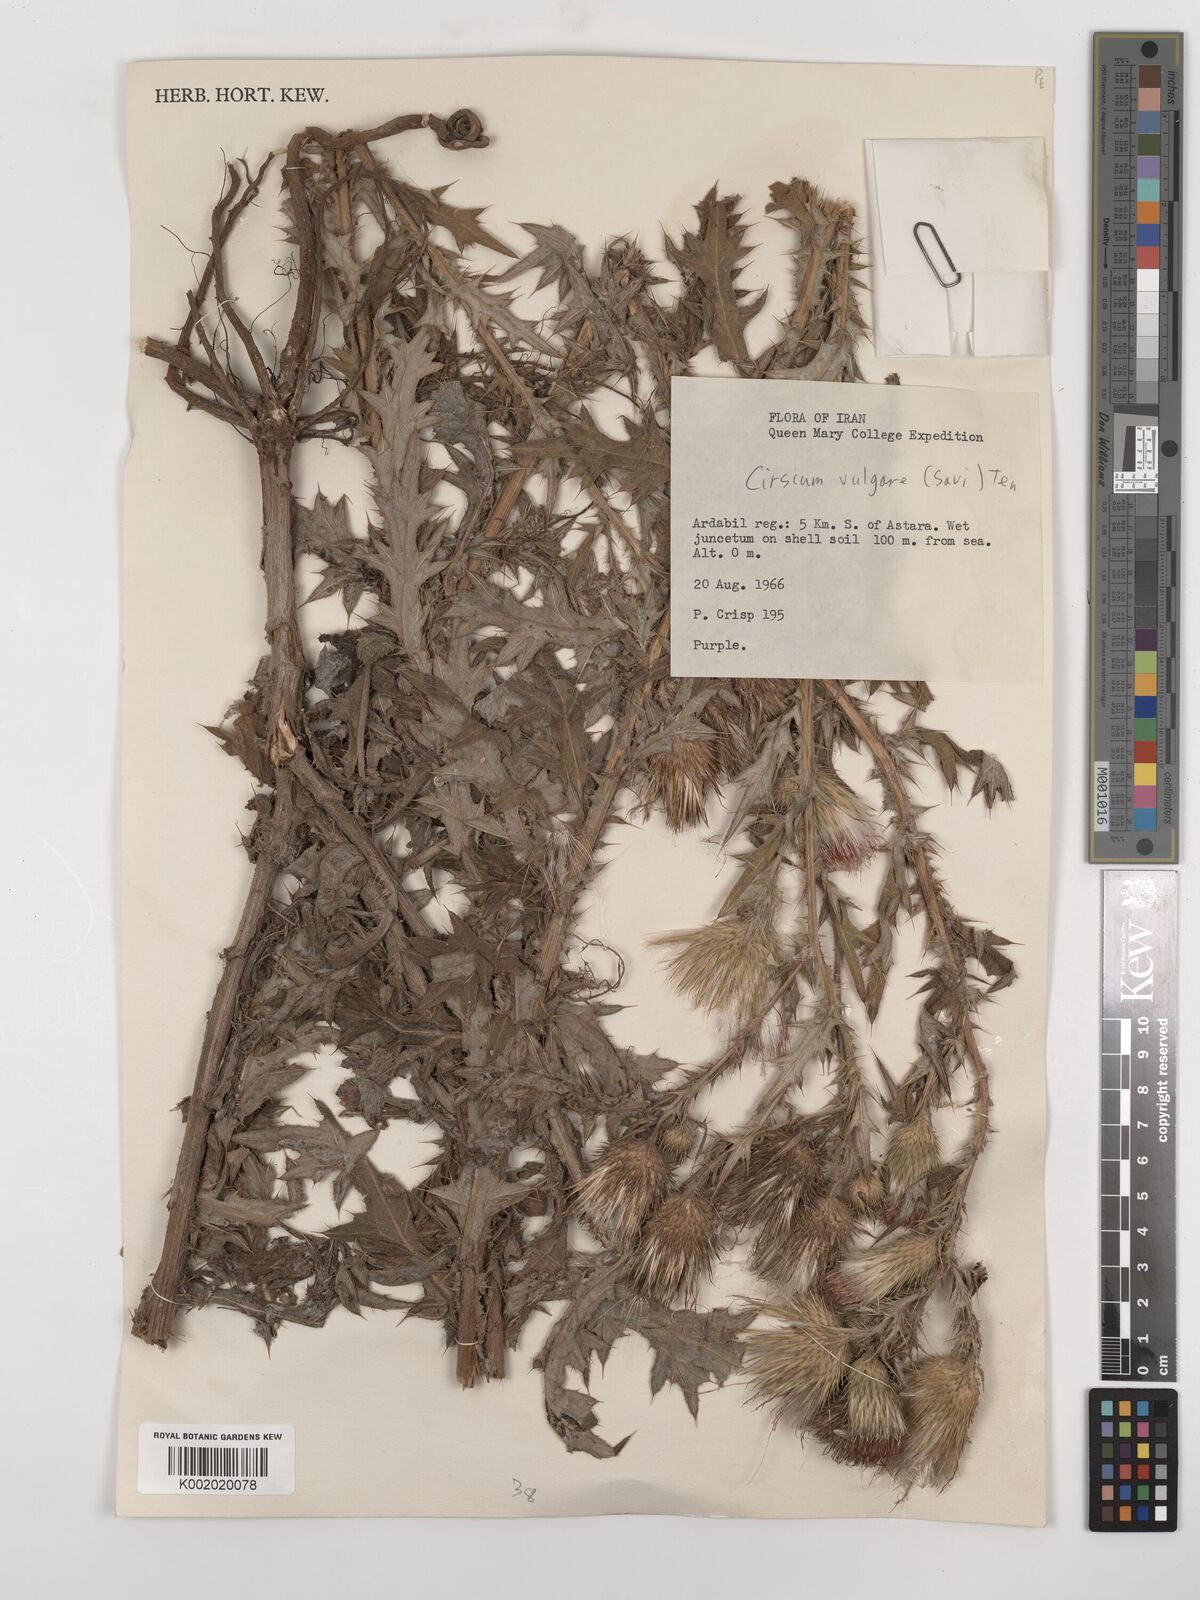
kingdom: Plantae
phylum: Tracheophyta
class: Magnoliopsida
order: Asterales
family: Asteraceae
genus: Cirsium
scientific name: Cirsium vulgare
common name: Bull thistle
